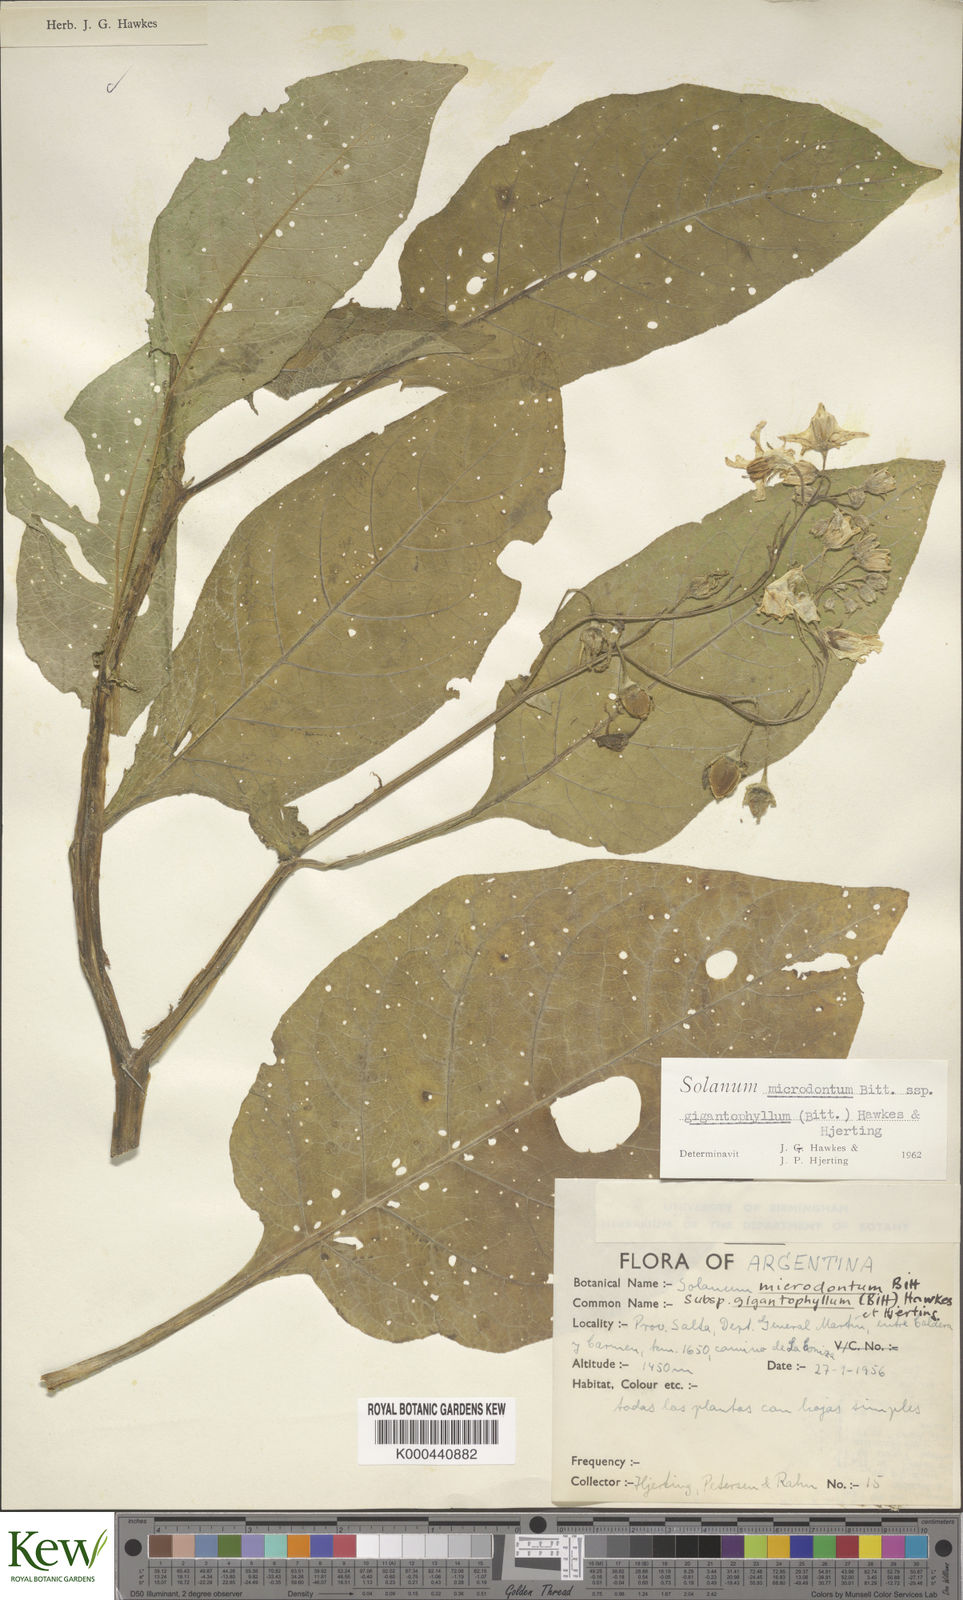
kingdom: Plantae
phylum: Tracheophyta
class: Magnoliopsida
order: Solanales
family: Solanaceae
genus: Solanum
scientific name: Solanum microdontum
